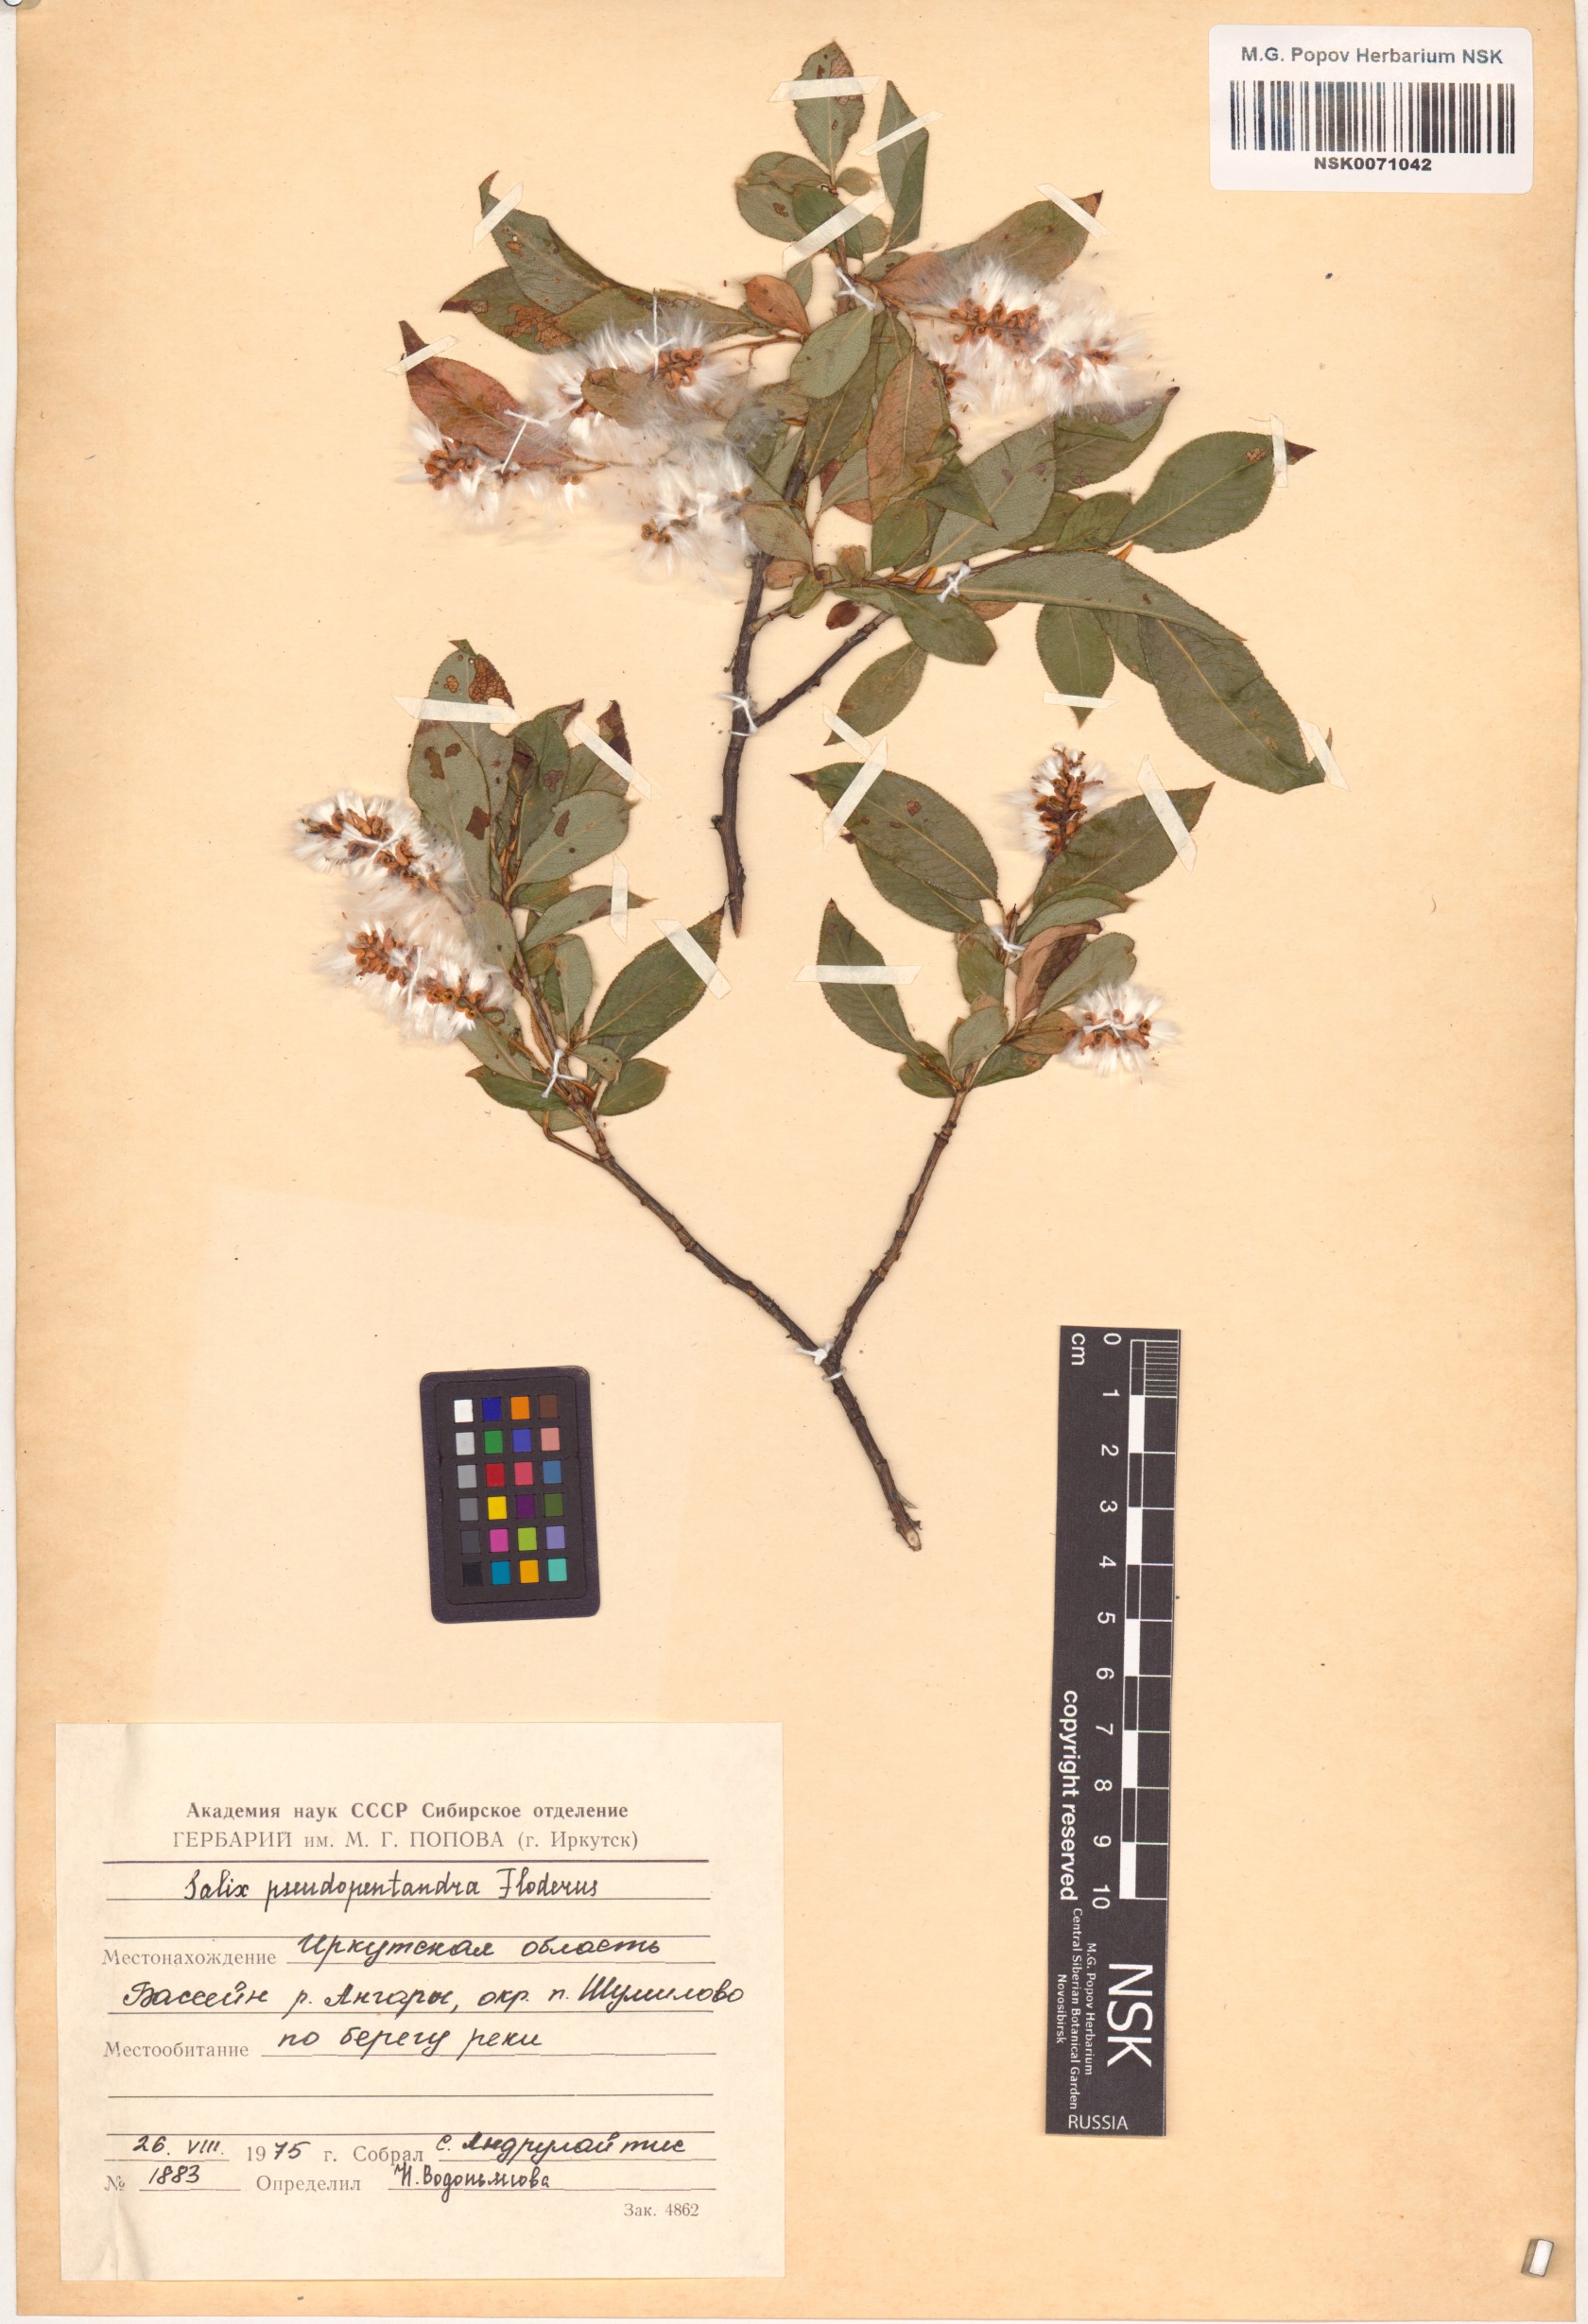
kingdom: Plantae
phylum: Tracheophyta
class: Magnoliopsida
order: Malpighiales
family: Salicaceae
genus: Salix
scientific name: Salix pseudopentandra
